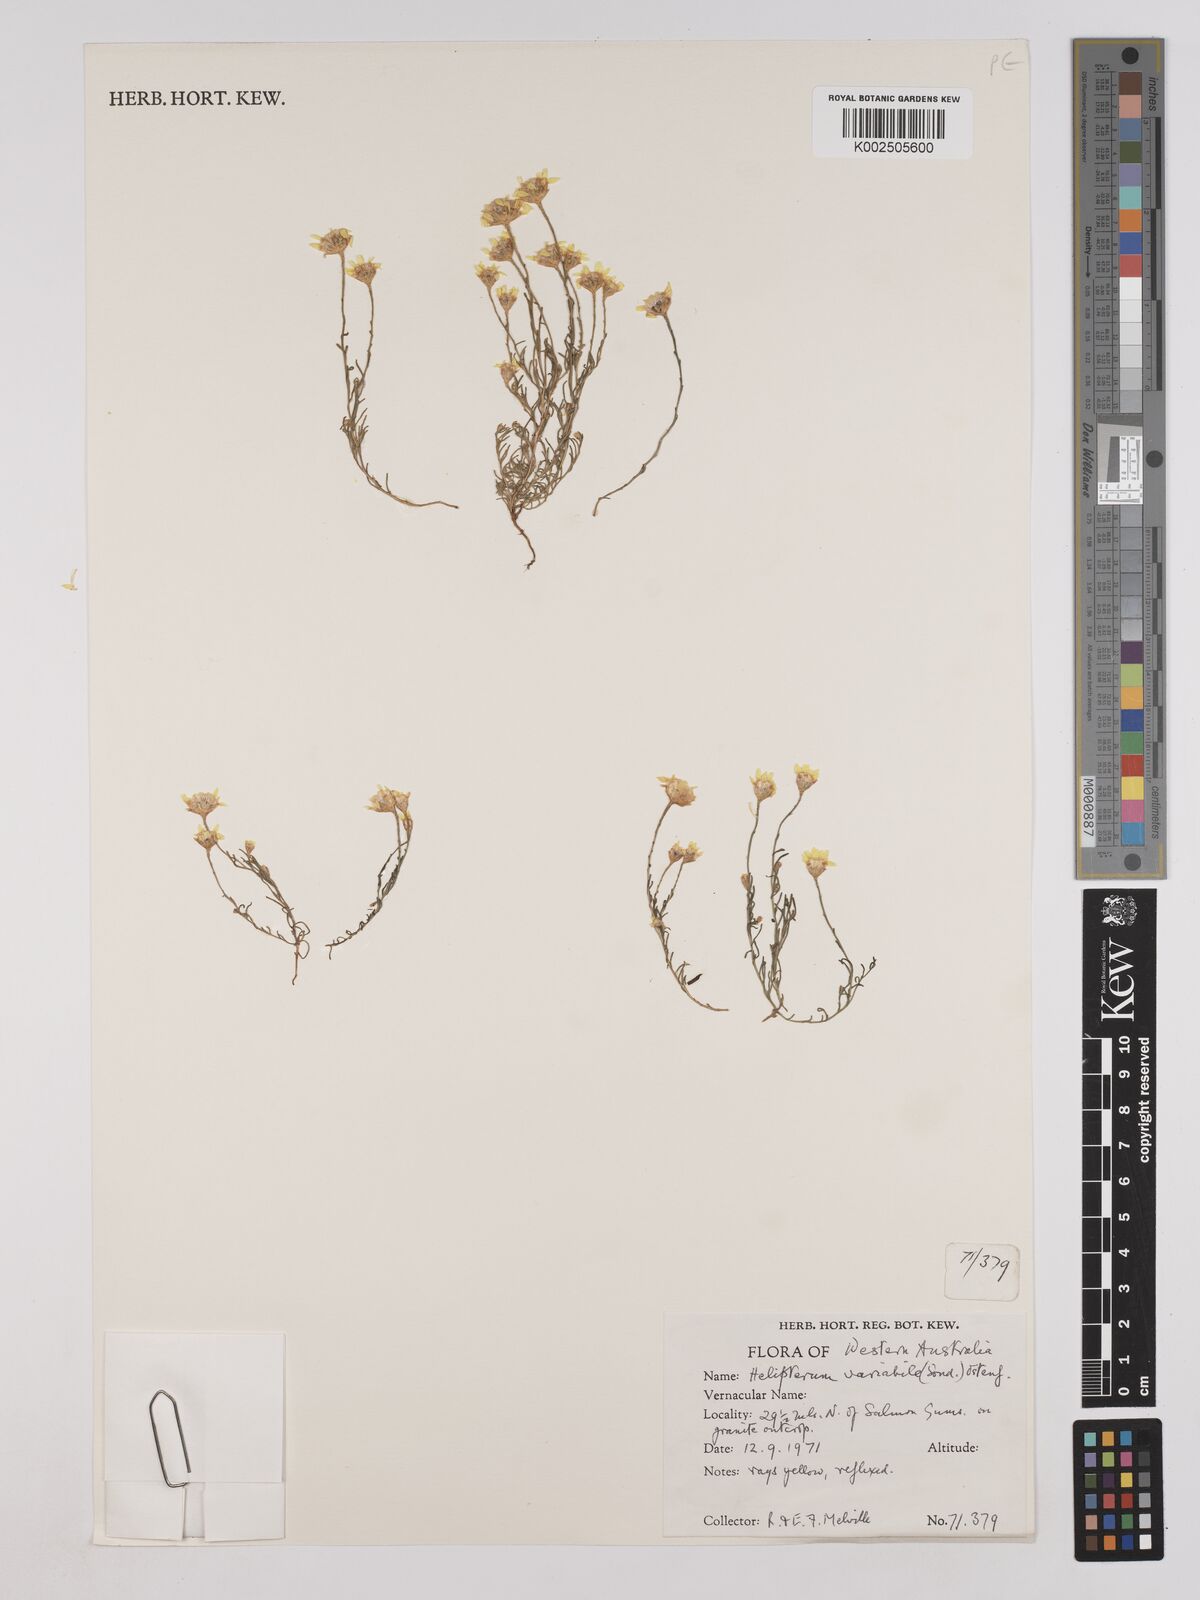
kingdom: Plantae
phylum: Tracheophyta
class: Magnoliopsida
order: Asterales
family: Asteraceae
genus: Hyalosperma
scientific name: Hyalosperma glutinosum
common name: Golden sunray
